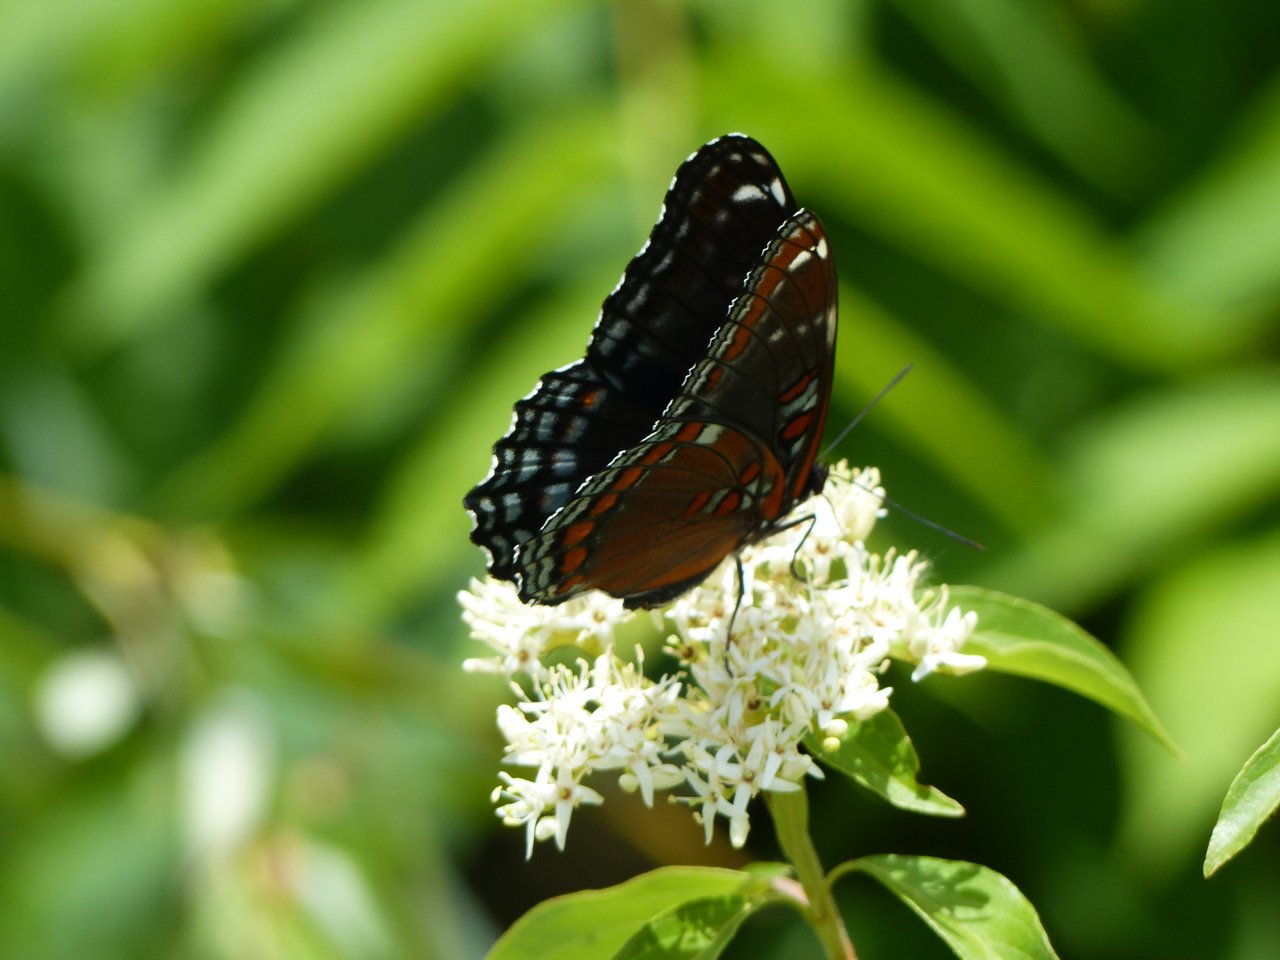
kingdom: Animalia
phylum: Arthropoda
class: Insecta
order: Lepidoptera
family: Nymphalidae
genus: Limenitis
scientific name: Limenitis astyanax
